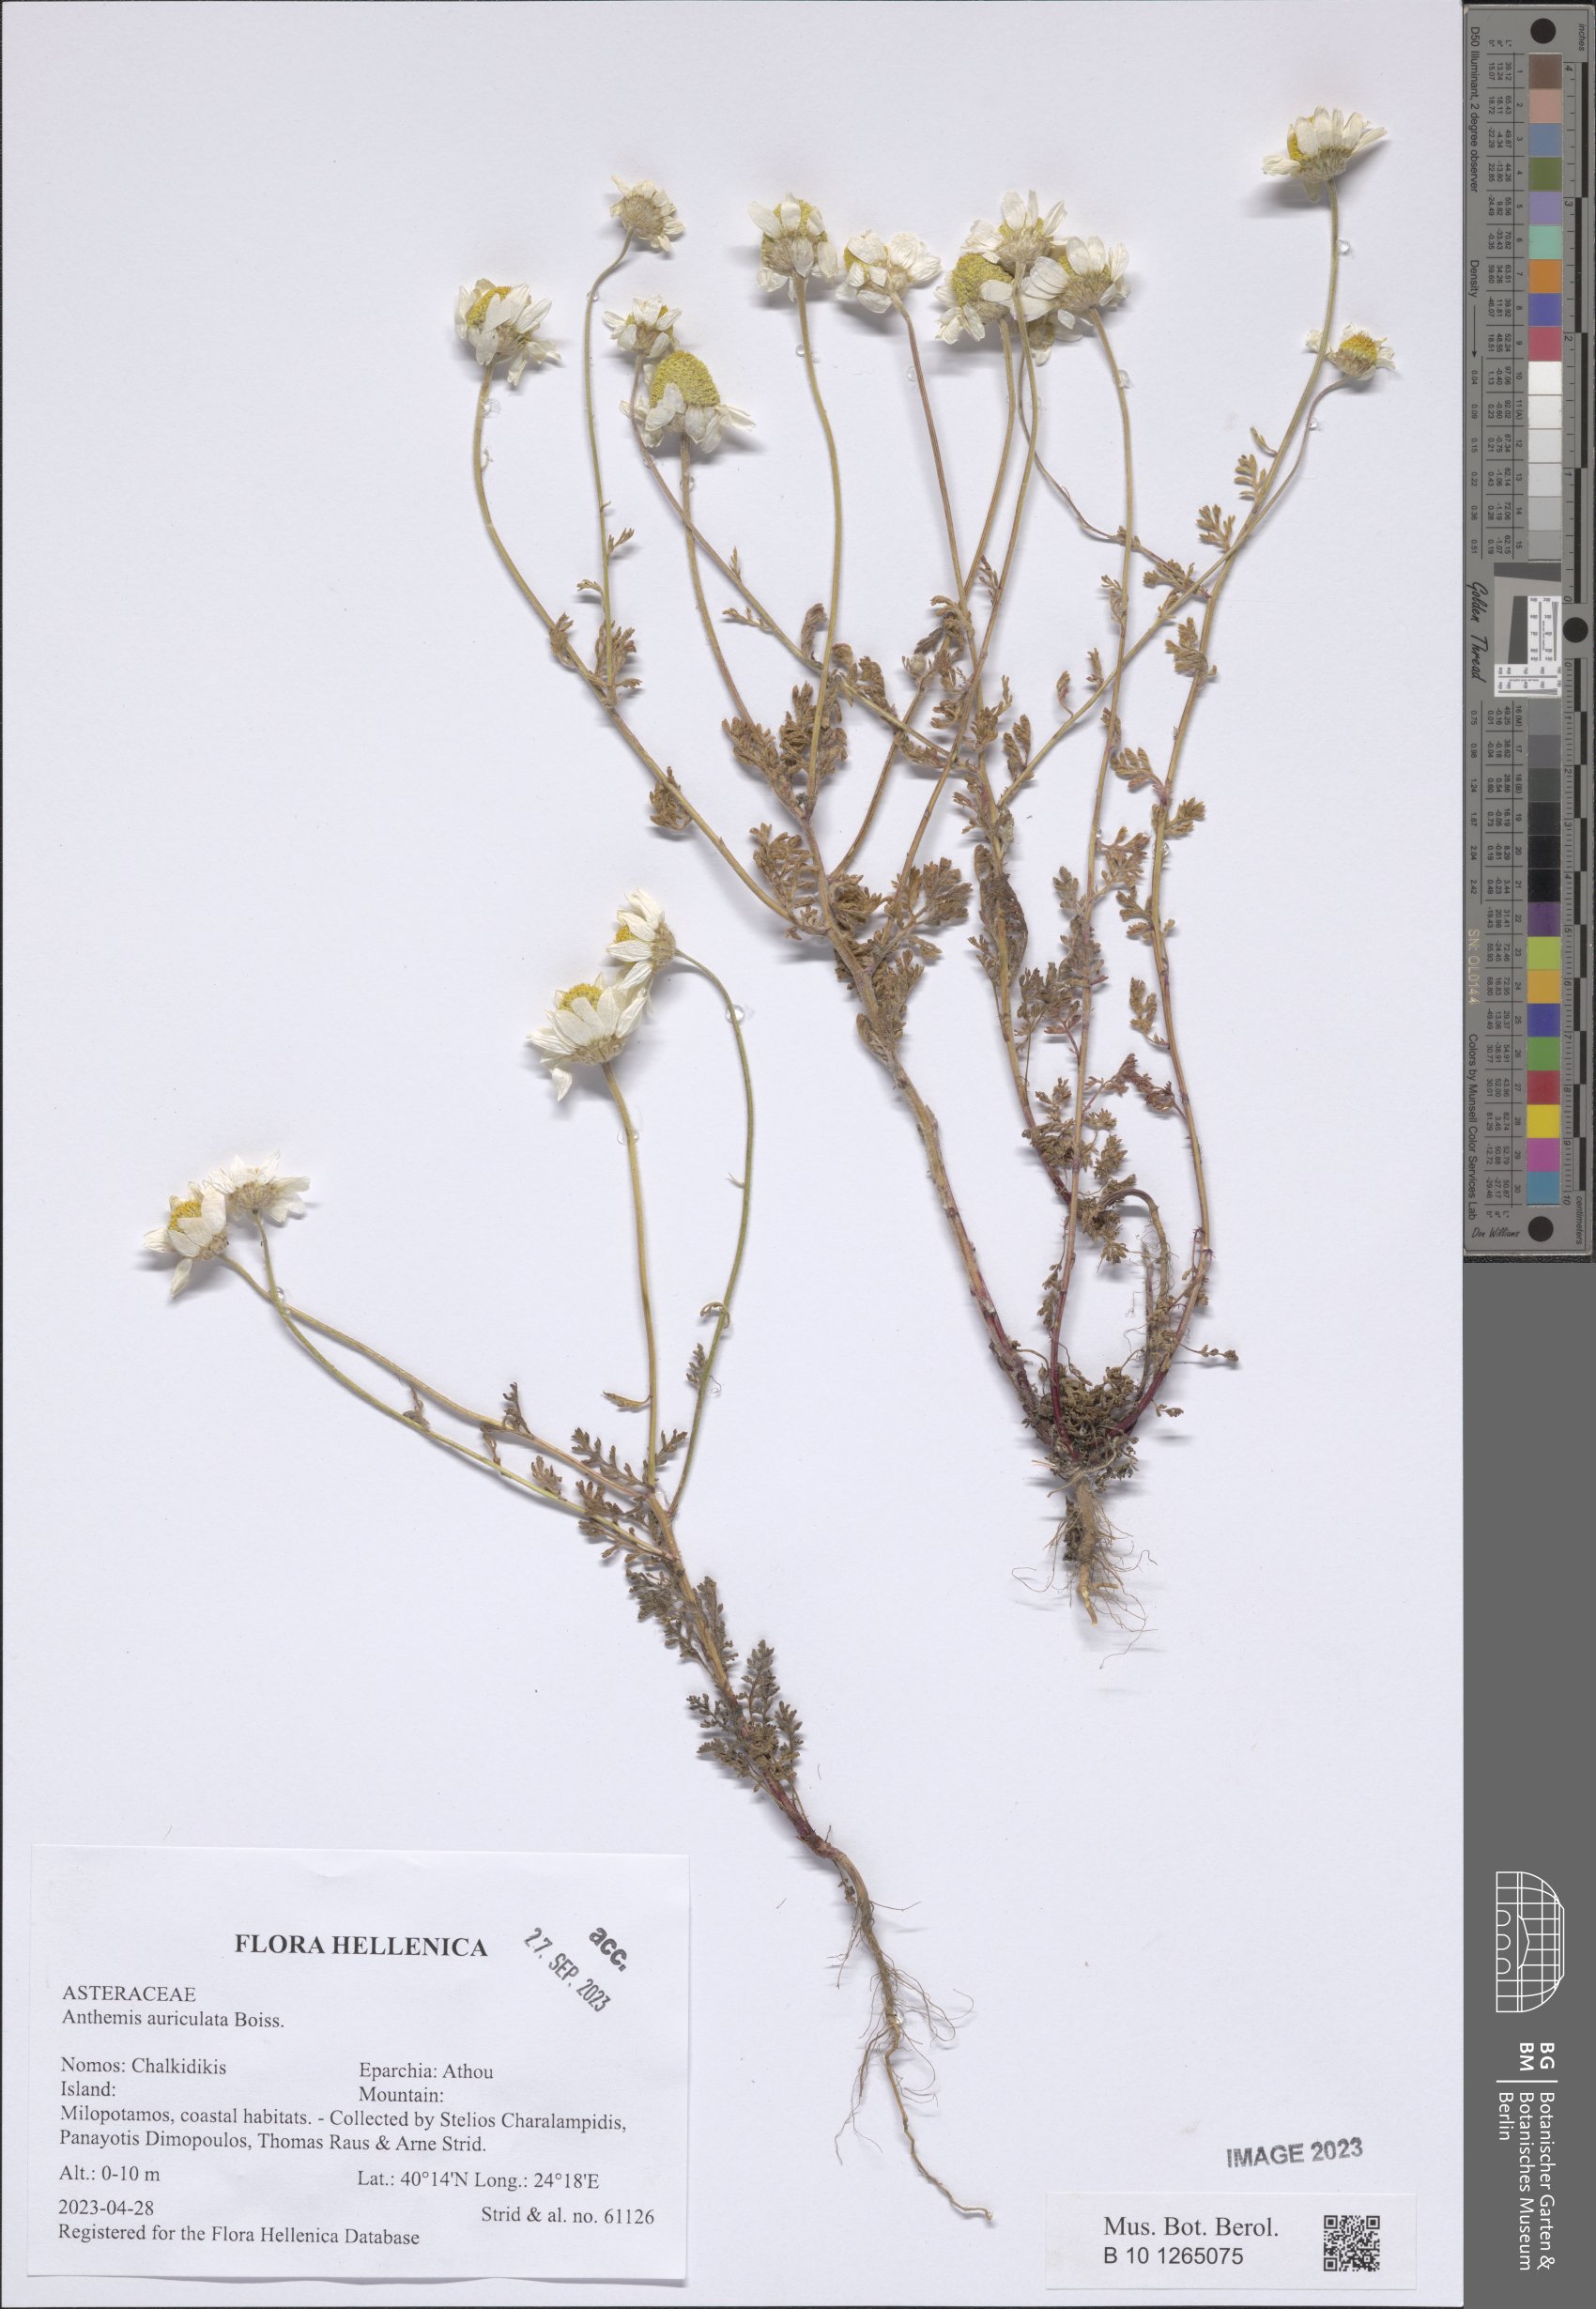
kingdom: Plantae
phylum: Tracheophyta
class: Magnoliopsida
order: Asterales
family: Asteraceae
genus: Anthemis
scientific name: Anthemis auriculata
